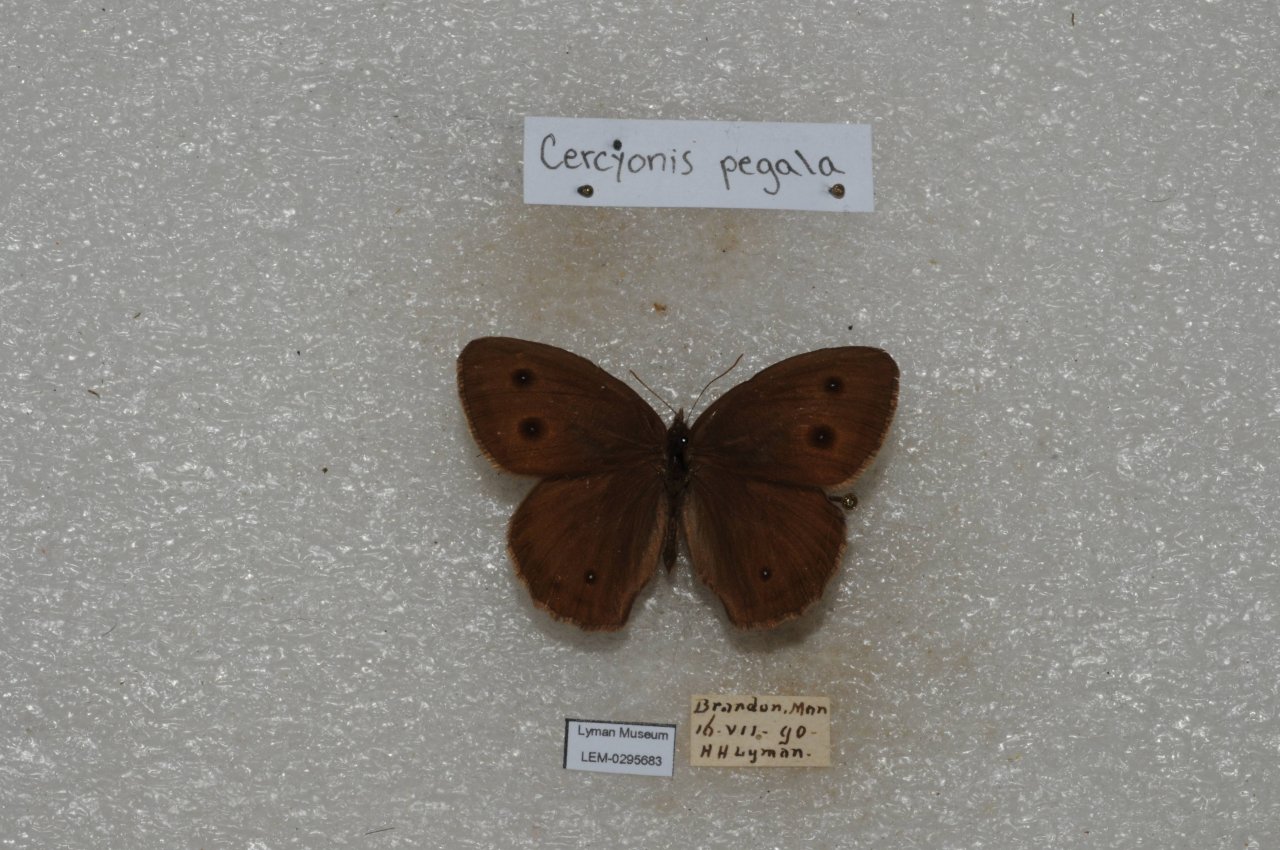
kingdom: Animalia
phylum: Arthropoda
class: Insecta
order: Lepidoptera
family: Nymphalidae
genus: Cercyonis
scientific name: Cercyonis pegala
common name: Common Wood-Nymph
